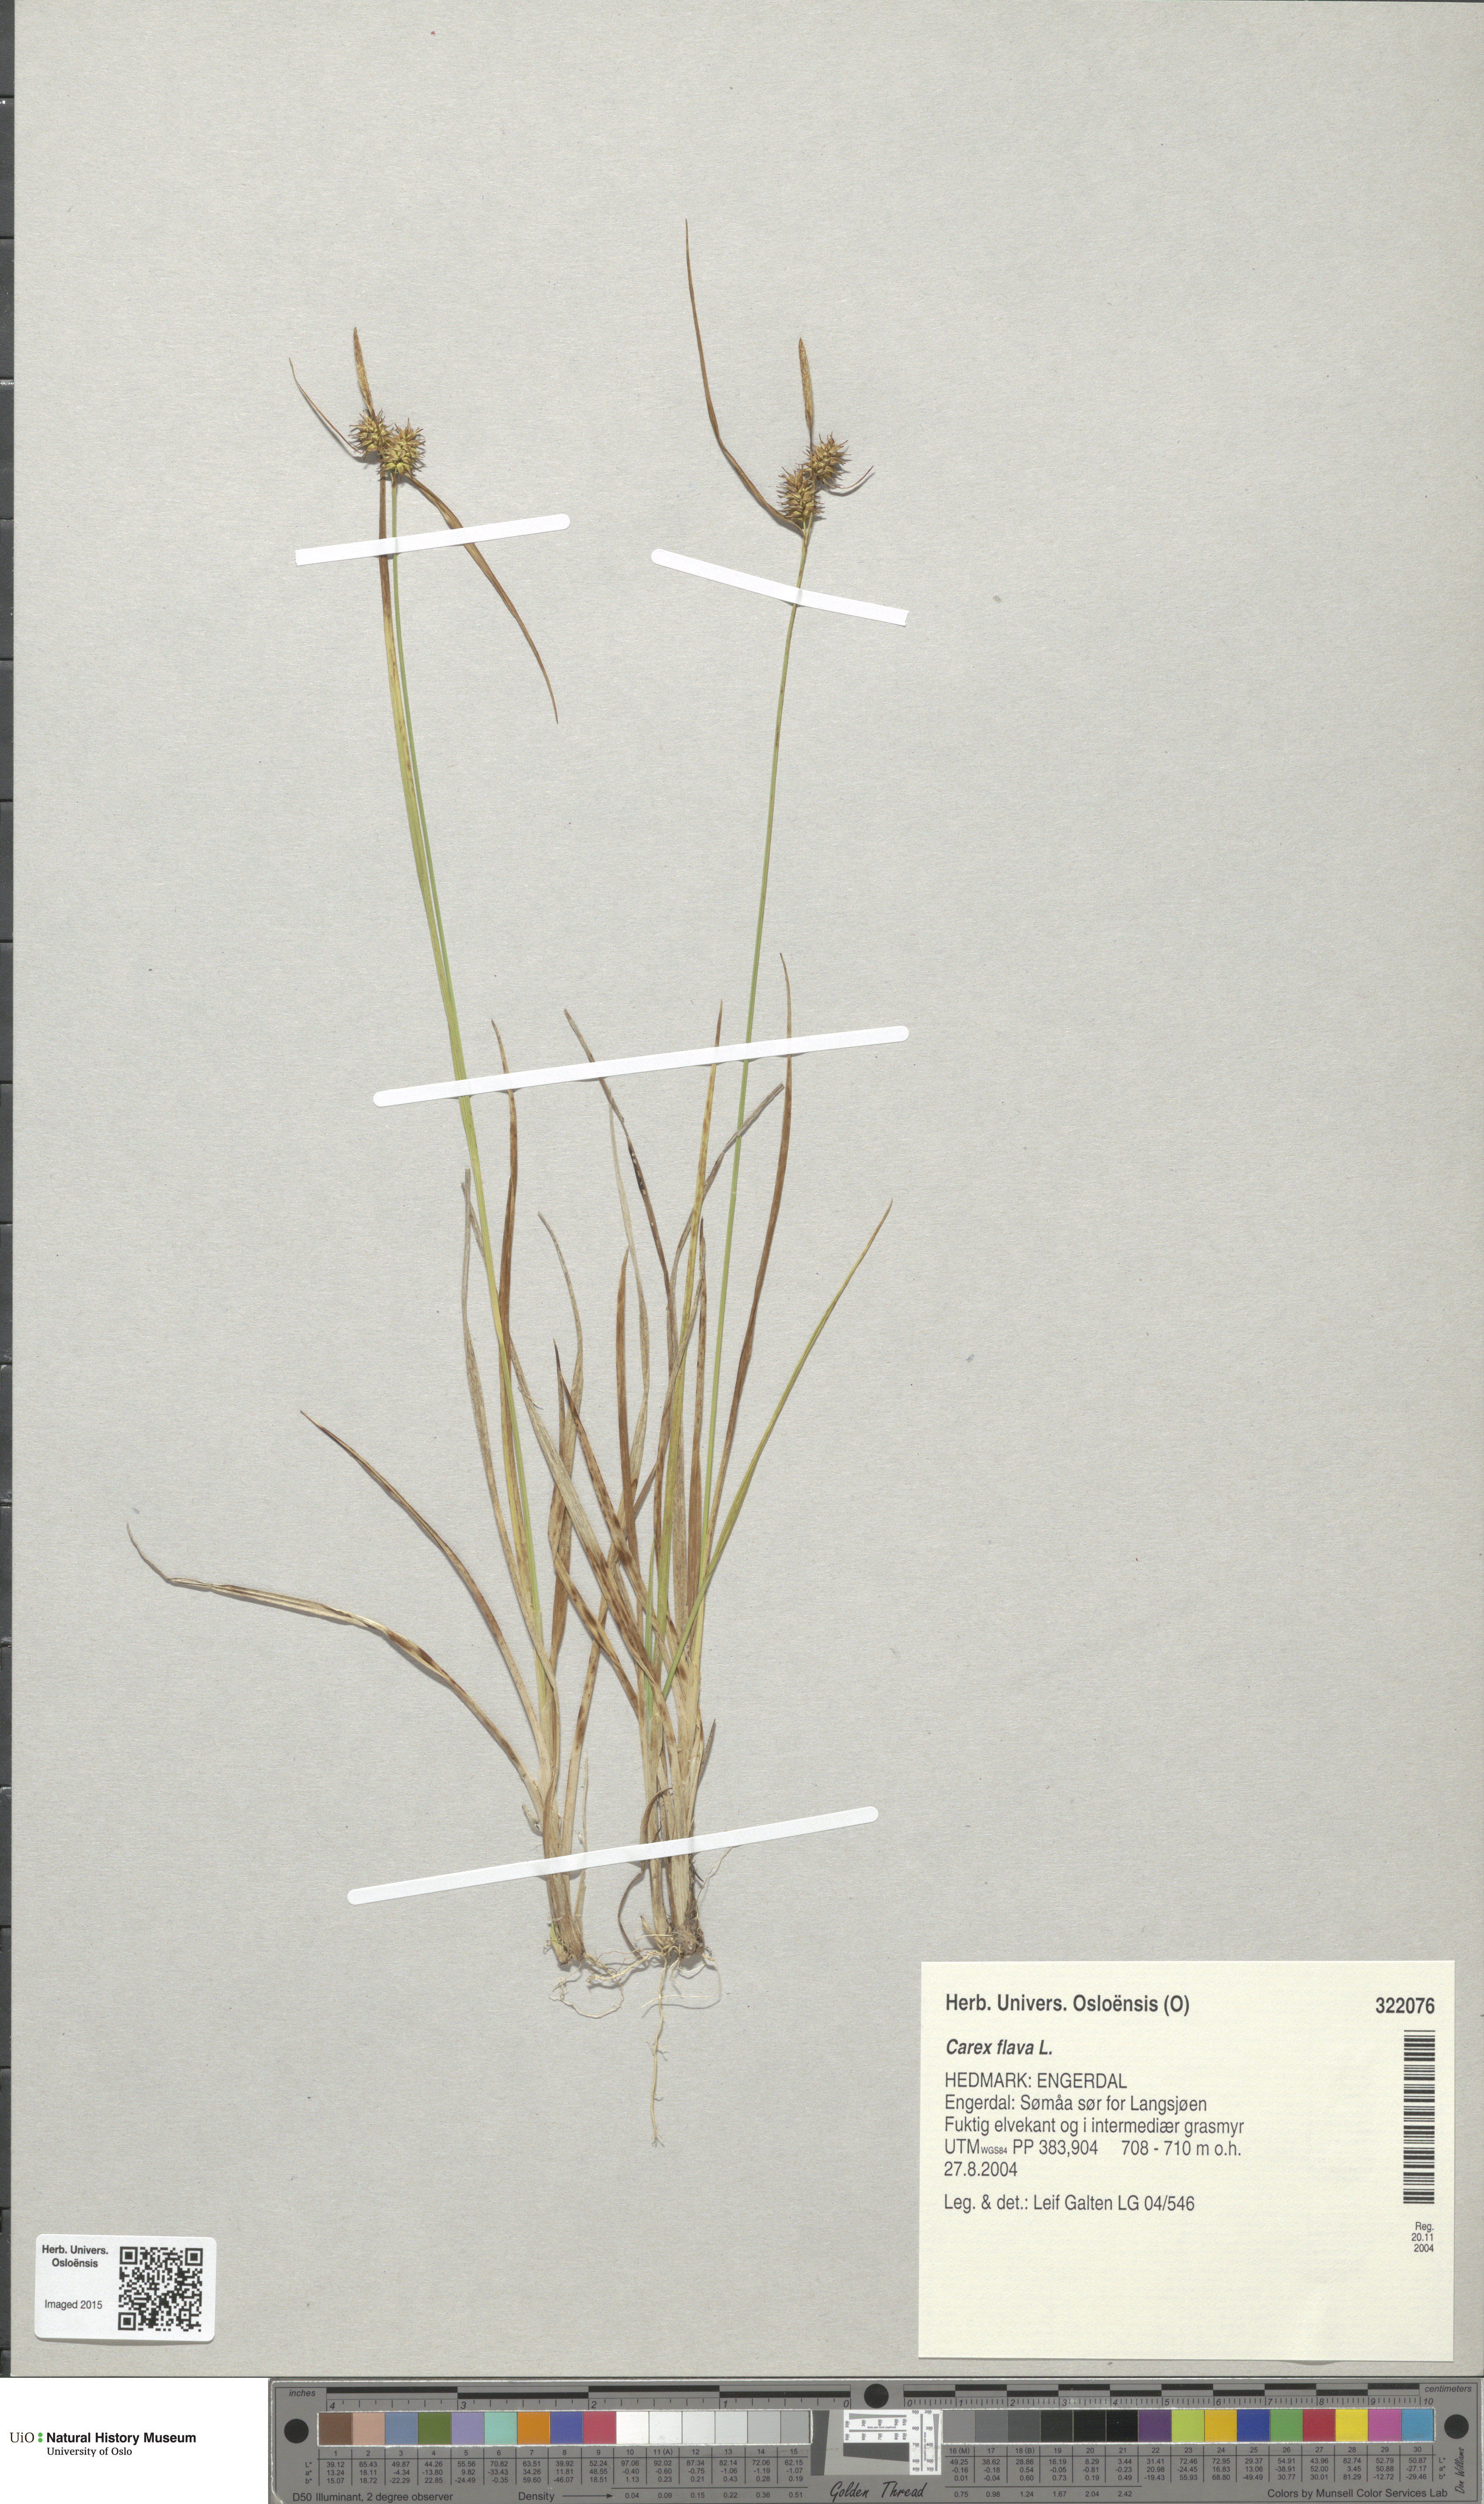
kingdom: Plantae
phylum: Tracheophyta
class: Liliopsida
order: Poales
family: Cyperaceae
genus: Carex
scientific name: Carex flava
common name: Large yellow-sedge
